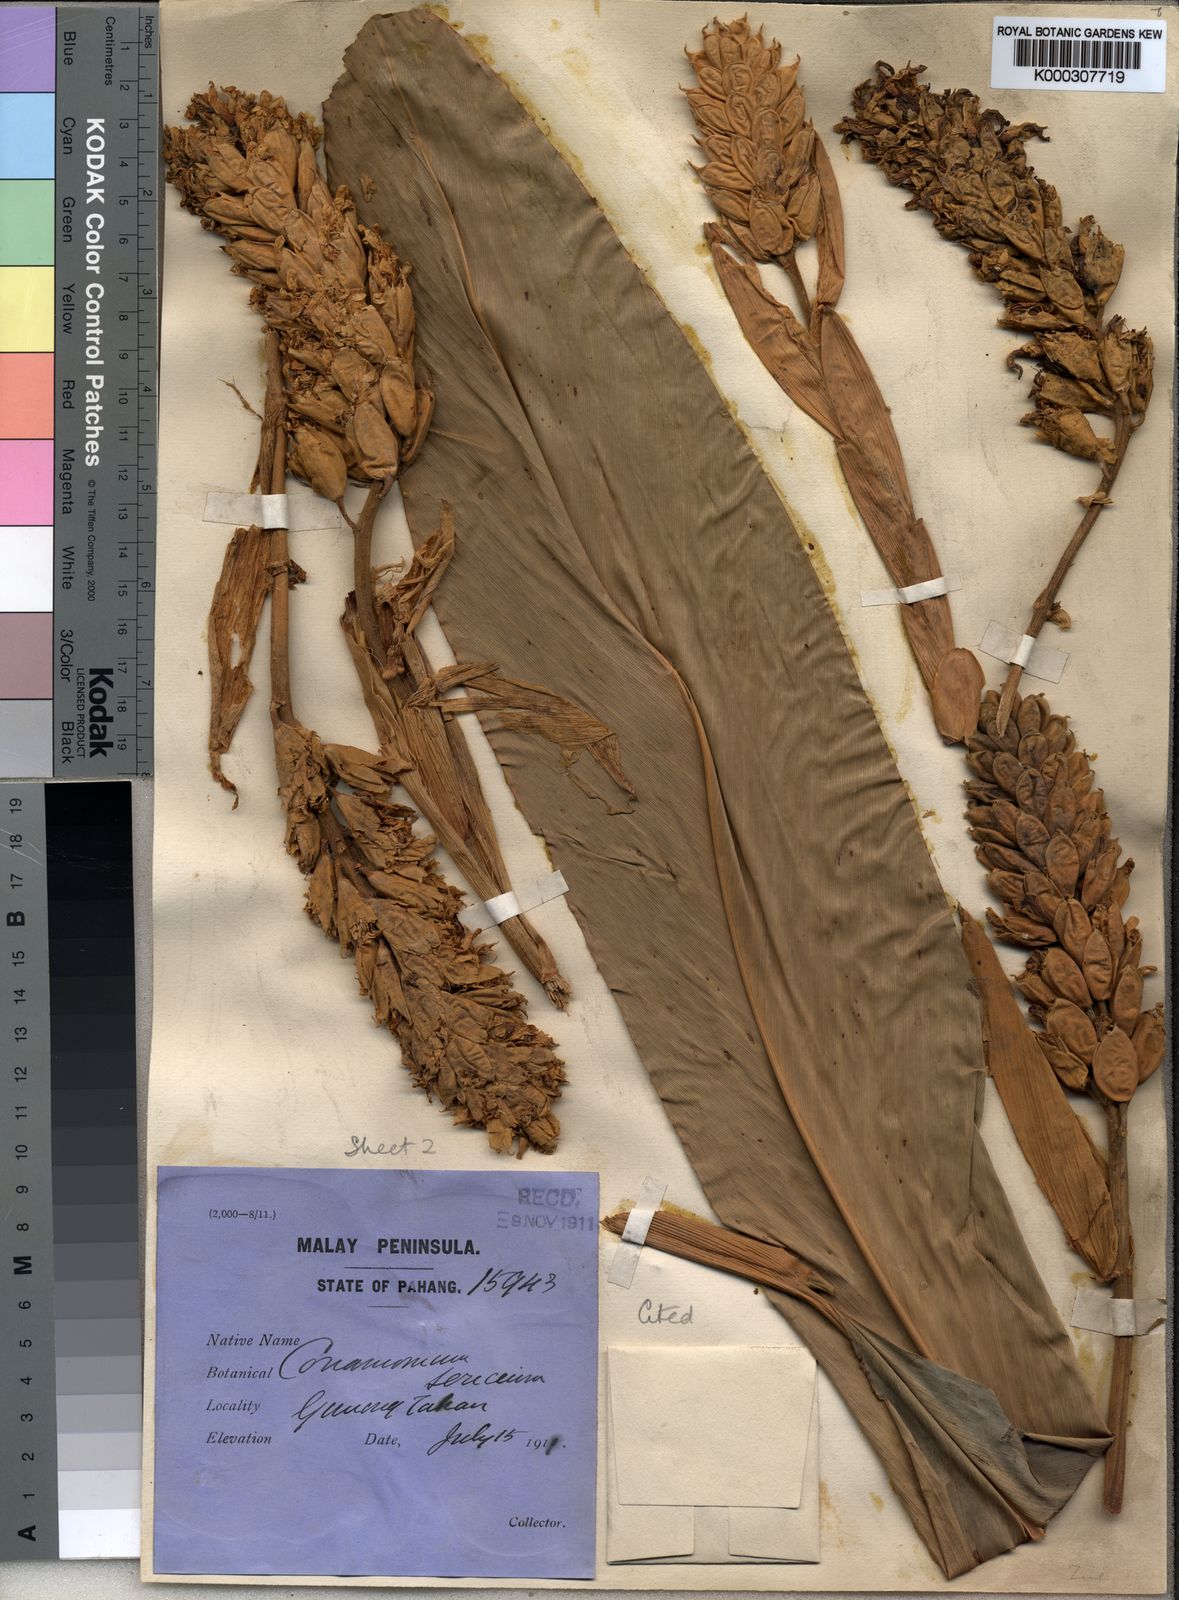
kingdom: Plantae
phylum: Tracheophyta
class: Liliopsida
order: Zingiberales
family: Zingiberaceae
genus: Geostachys
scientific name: Geostachys sericea
